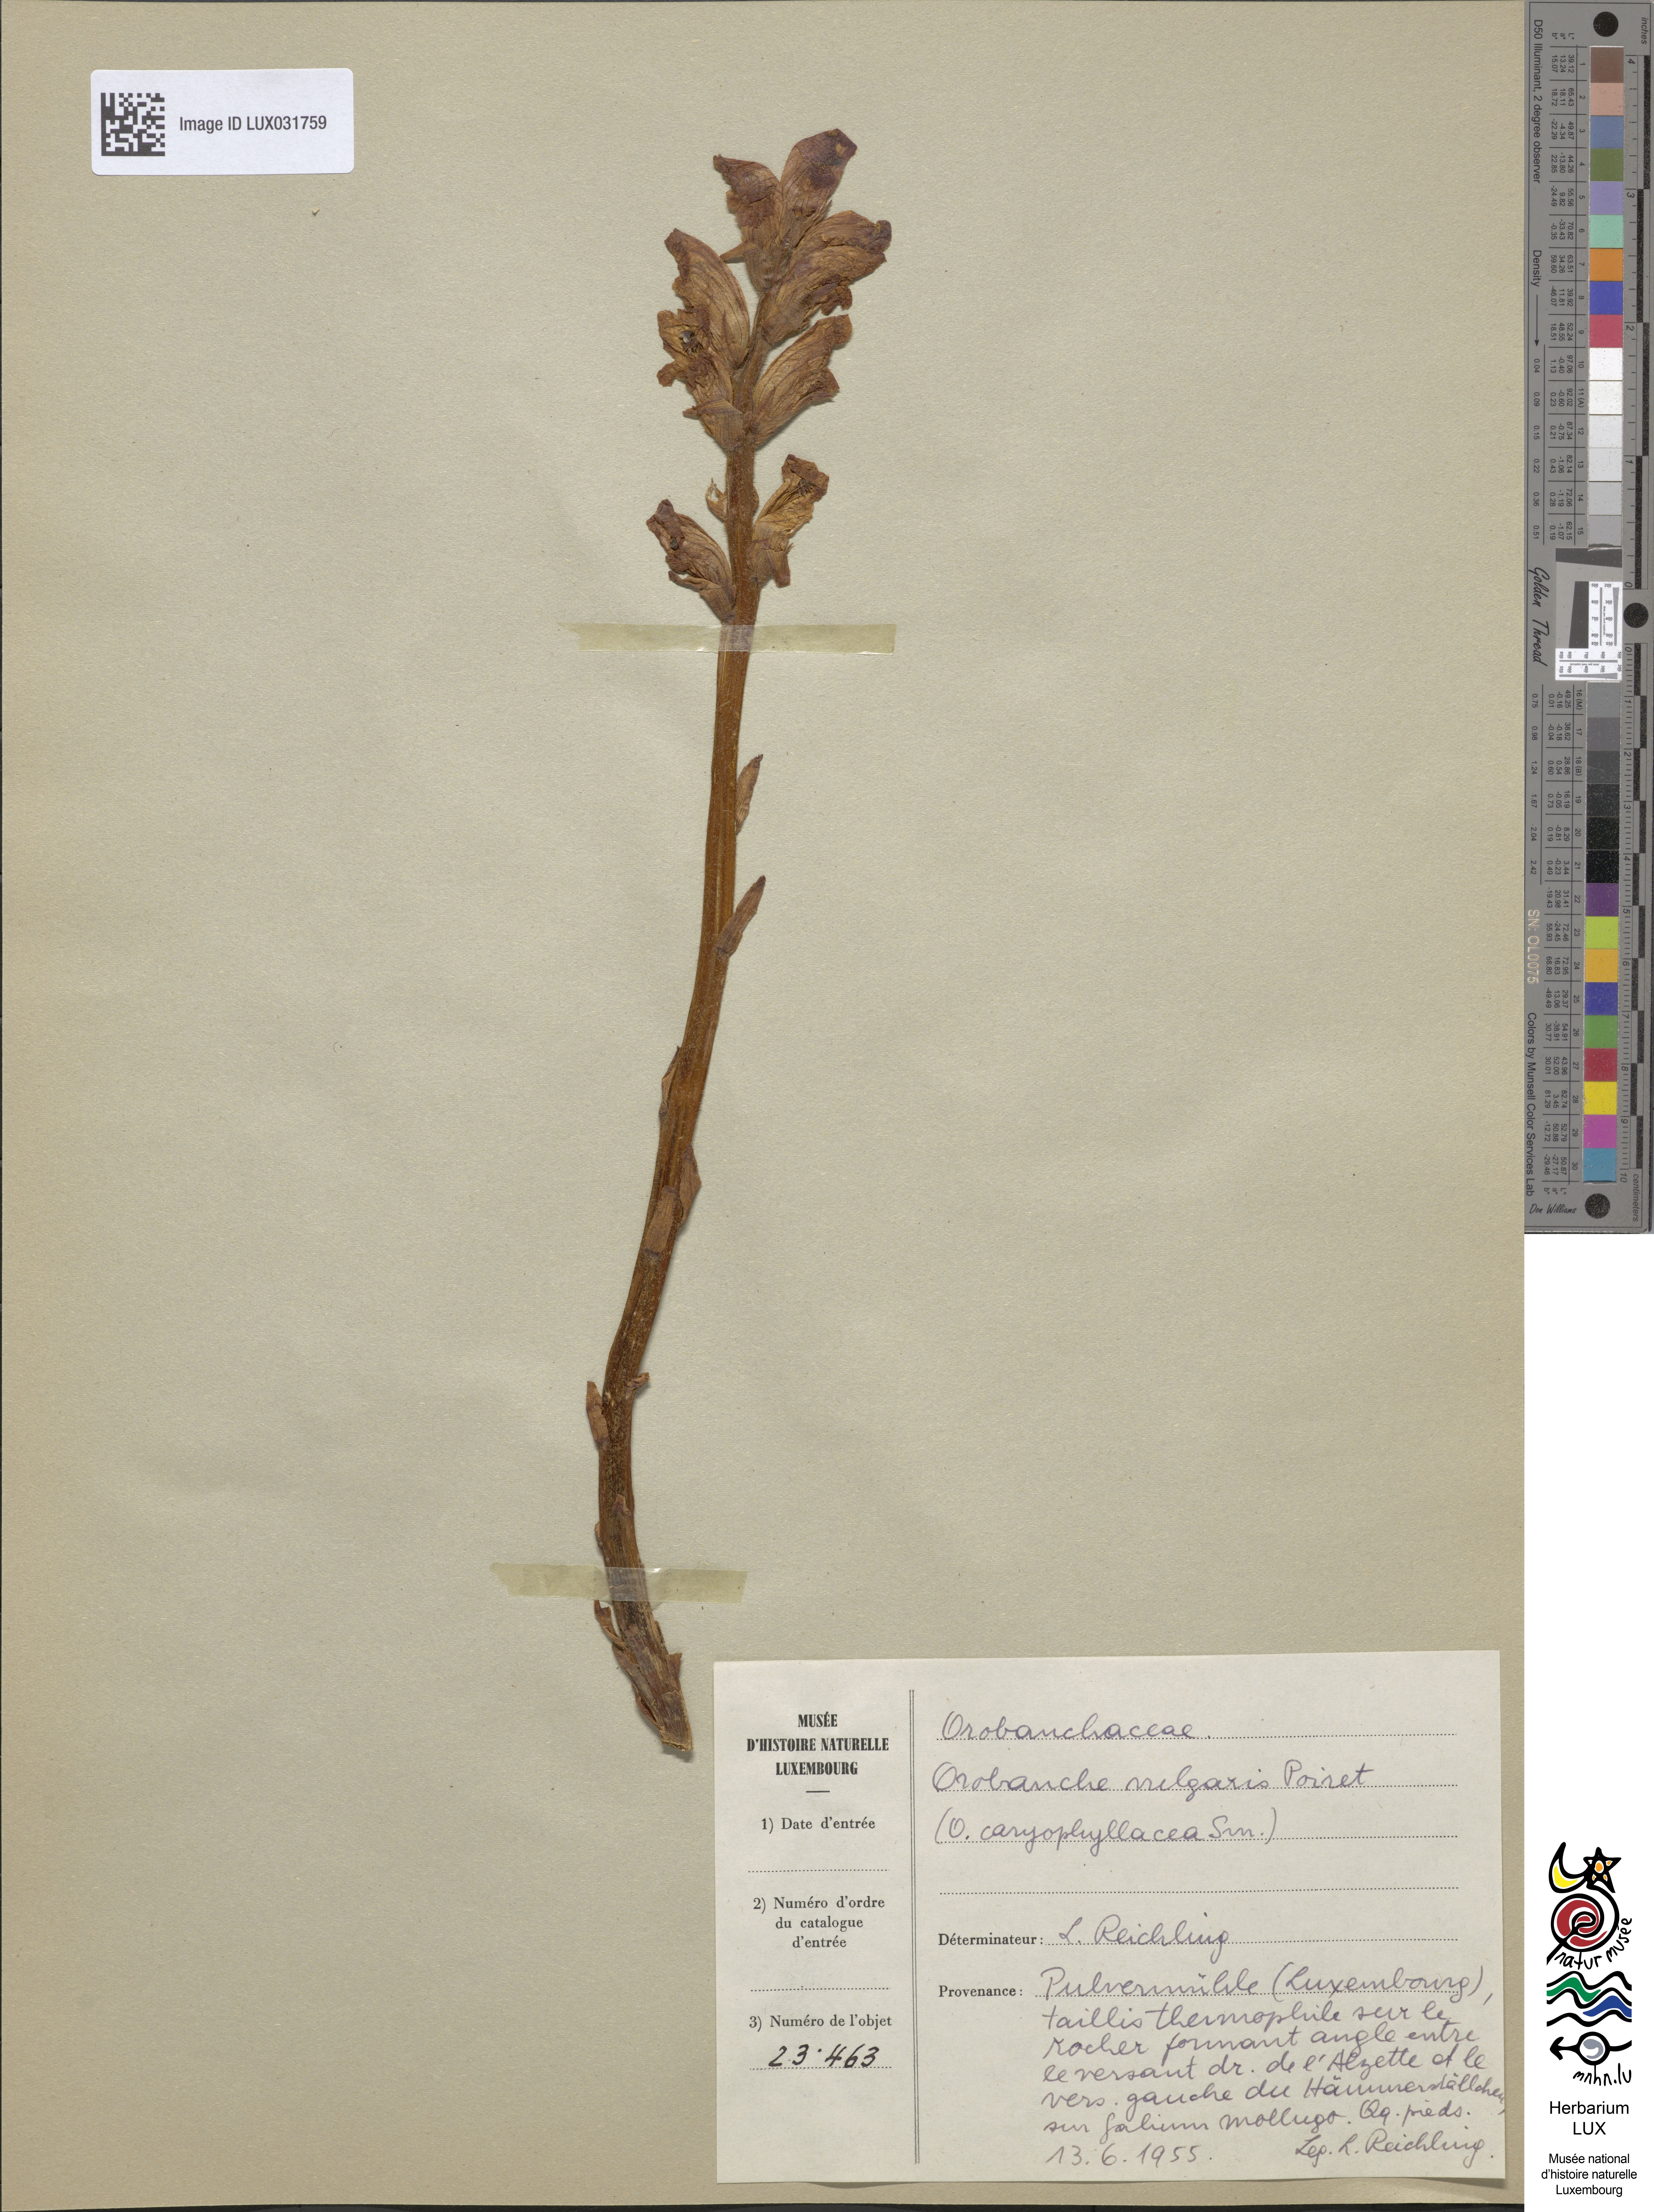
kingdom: Plantae
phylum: Tracheophyta
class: Magnoliopsida
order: Lamiales
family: Orobanchaceae
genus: Orobanche
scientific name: Orobanche caryophyllacea
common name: Bedstraw broomrape
